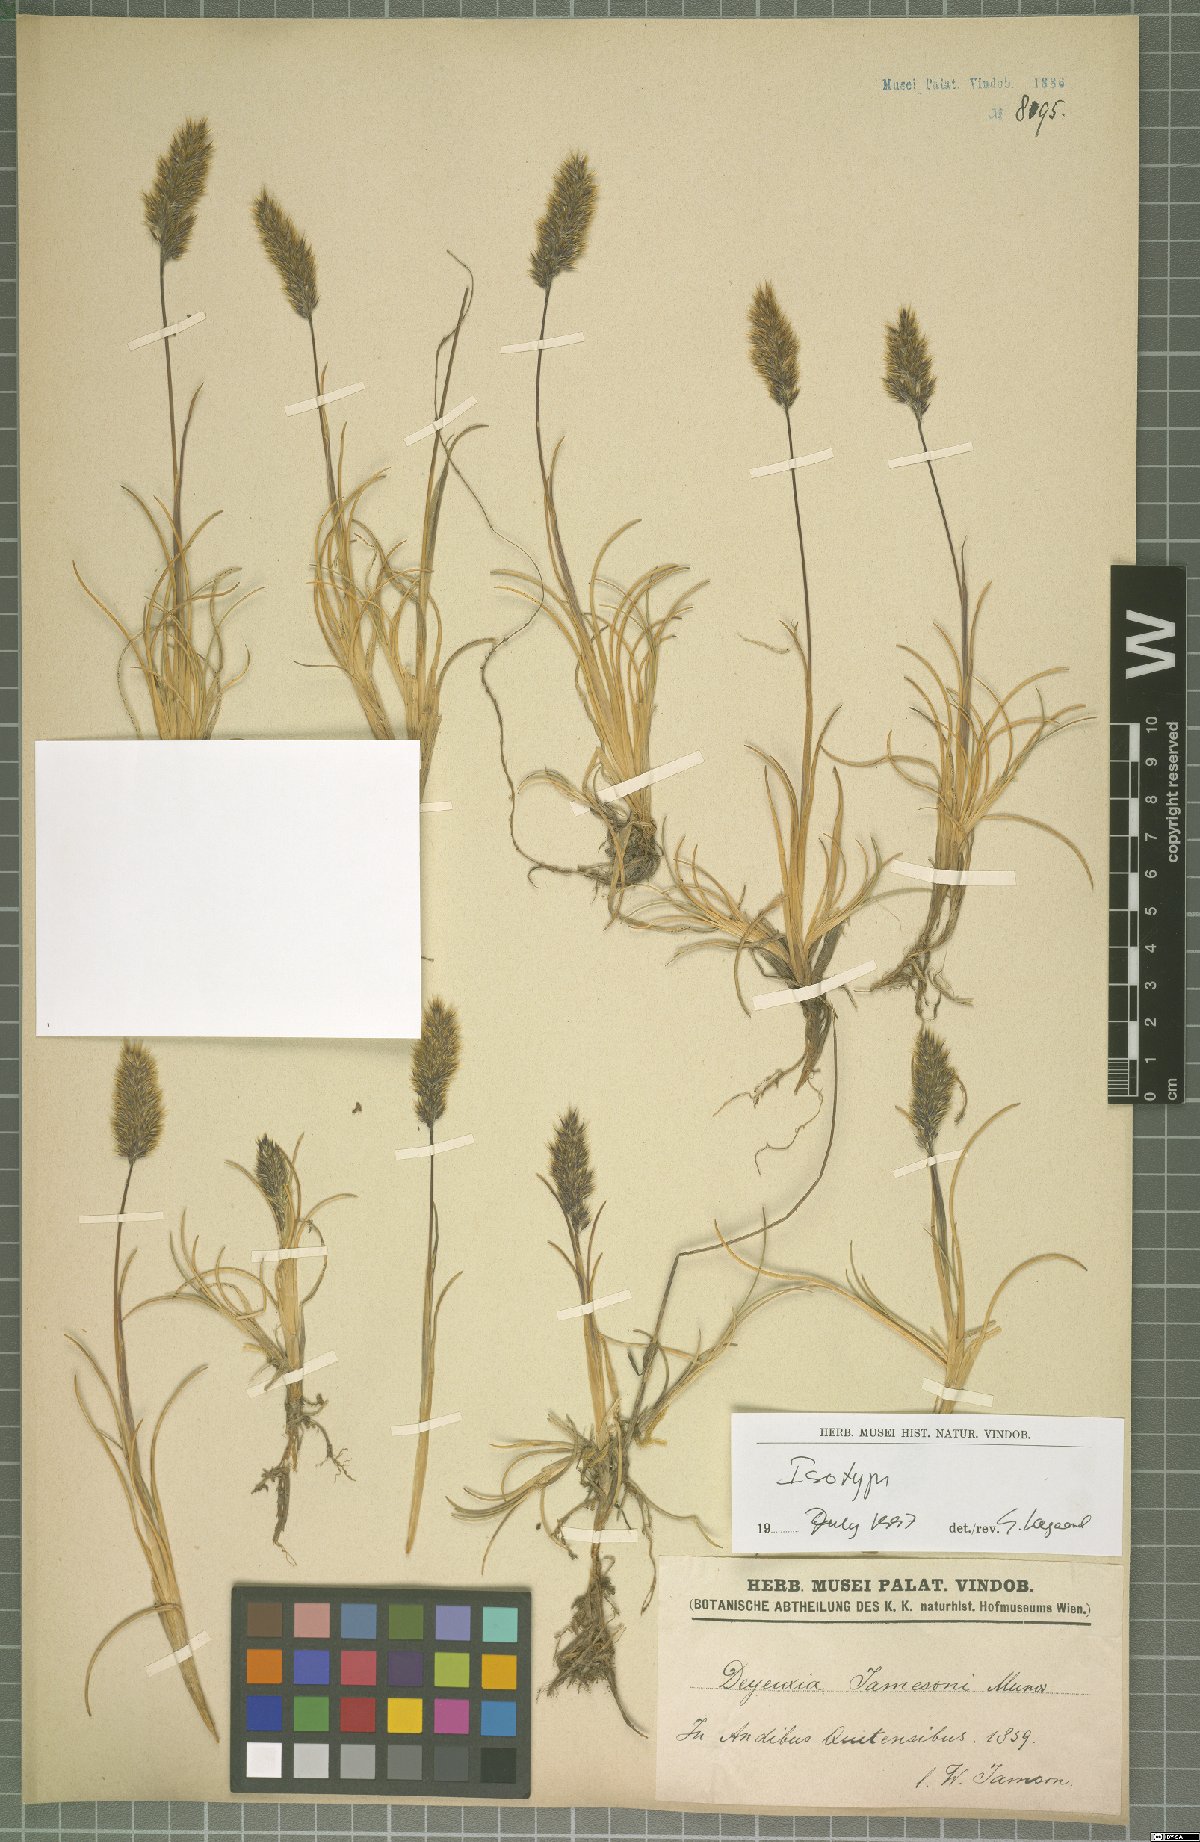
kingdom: Plantae
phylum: Tracheophyta
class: Liliopsida
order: Poales
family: Poaceae
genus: Cinnagrostis
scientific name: Cinnagrostis jamesonii
